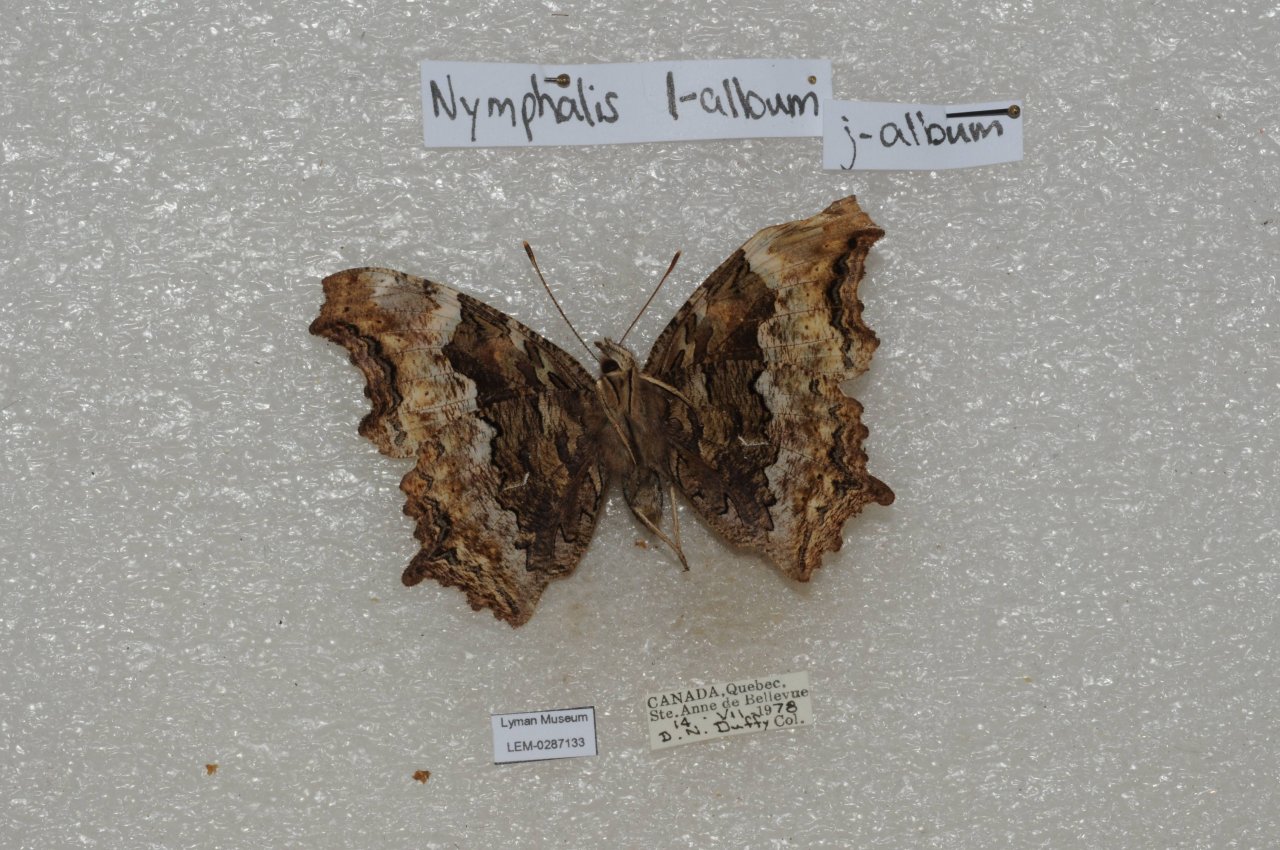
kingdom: Animalia
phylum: Arthropoda
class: Insecta
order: Lepidoptera
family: Nymphalidae
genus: Polygonia
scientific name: Polygonia vaualbum
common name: Compton Tortoiseshell
